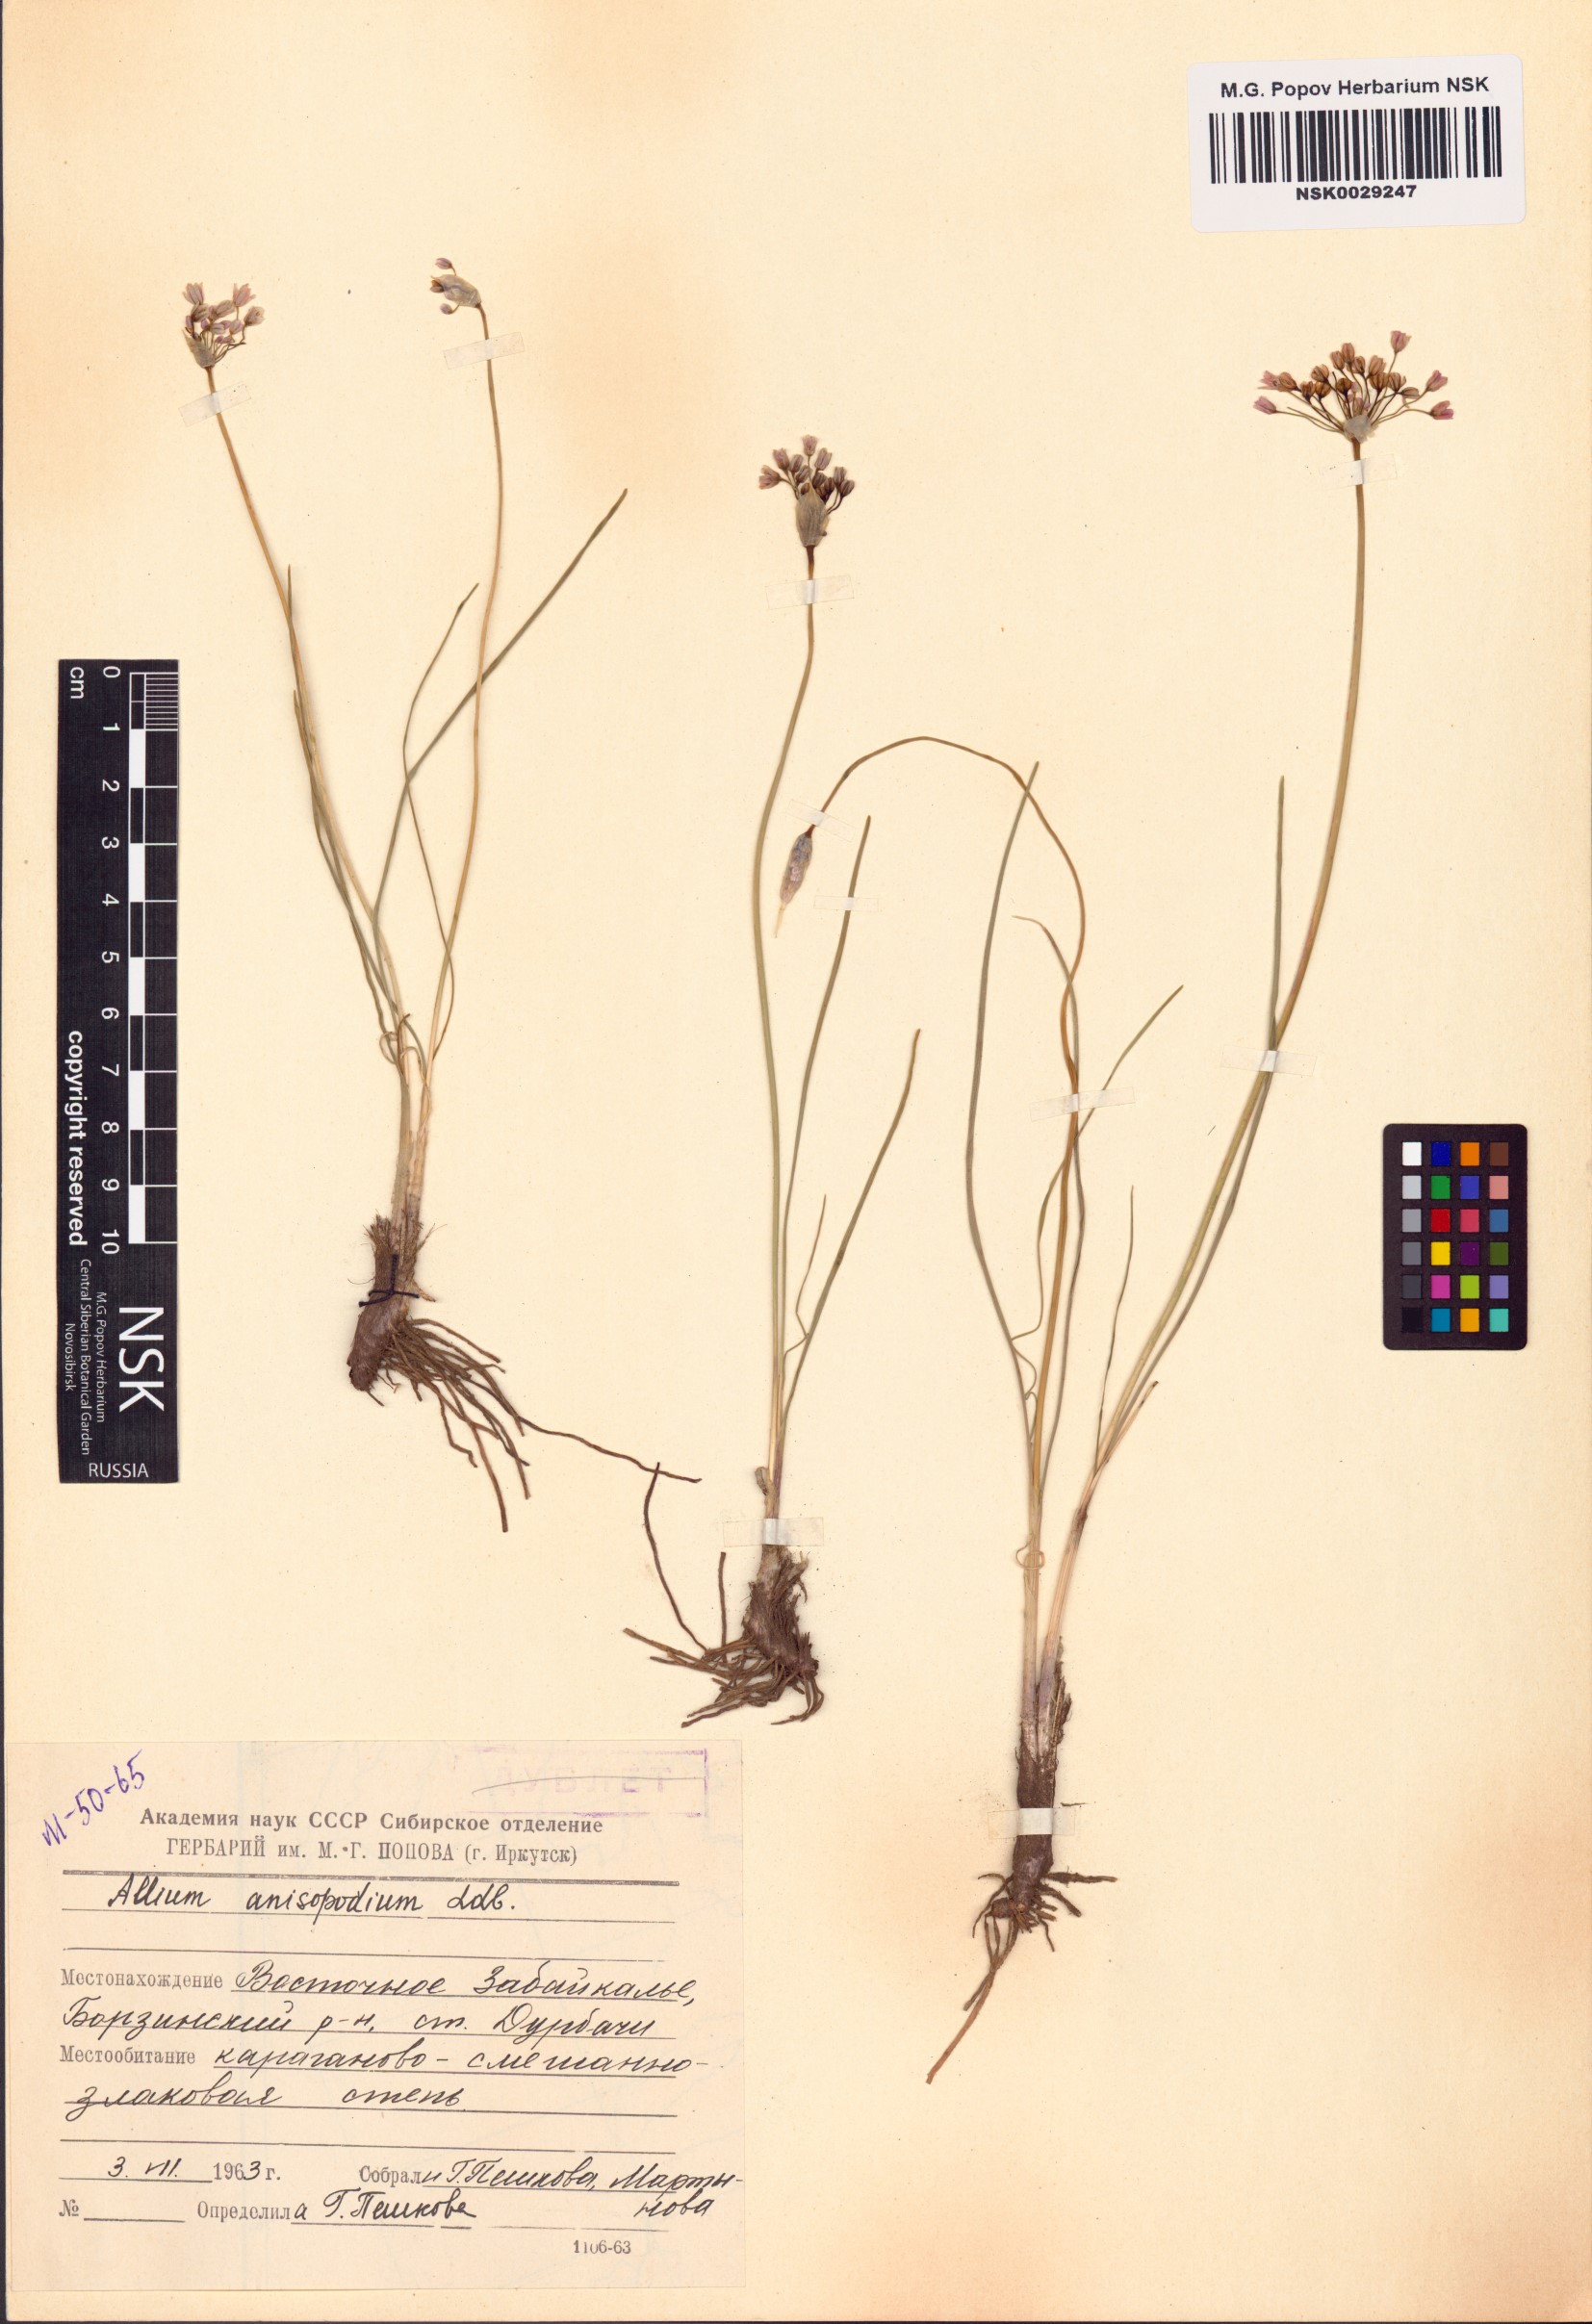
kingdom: Plantae
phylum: Tracheophyta
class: Liliopsida
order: Asparagales
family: Amaryllidaceae
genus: Allium
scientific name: Allium anisopodium
